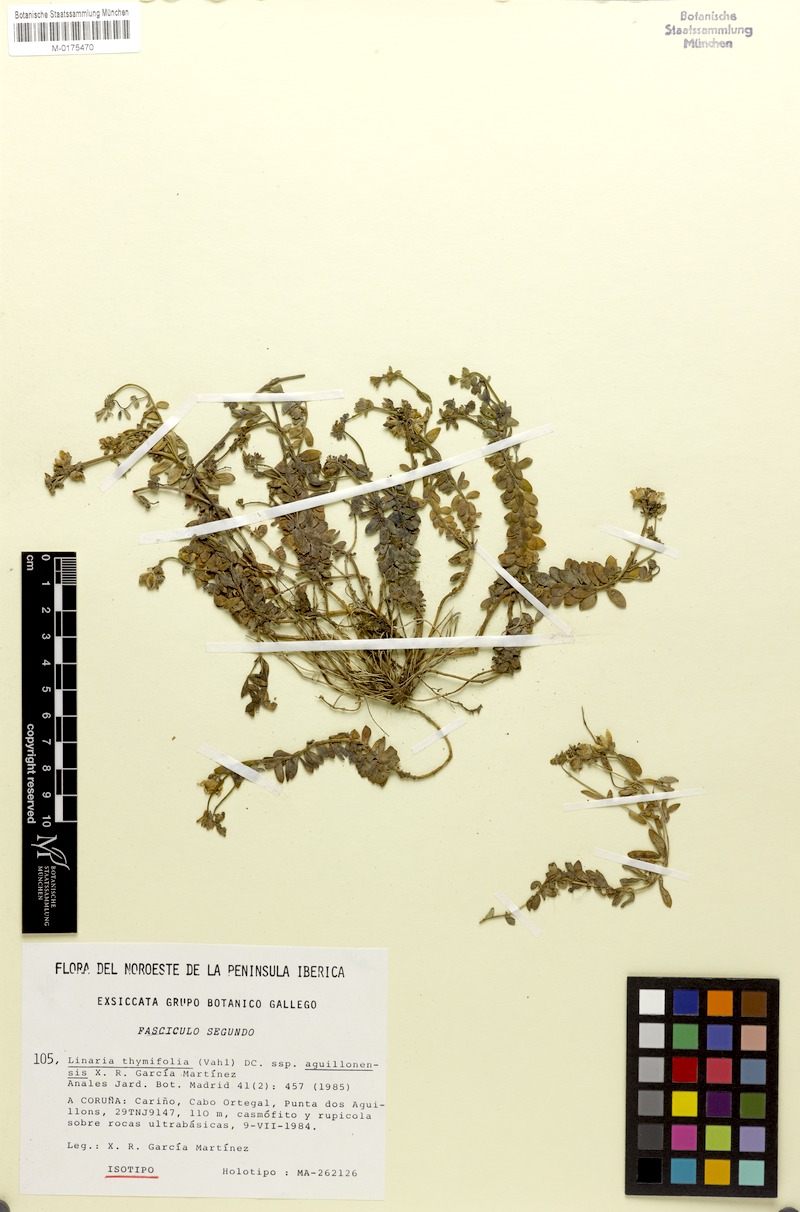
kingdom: Plantae
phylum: Tracheophyta
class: Magnoliopsida
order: Lamiales
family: Plantaginaceae
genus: Linaria
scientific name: Linaria polygalifolia
